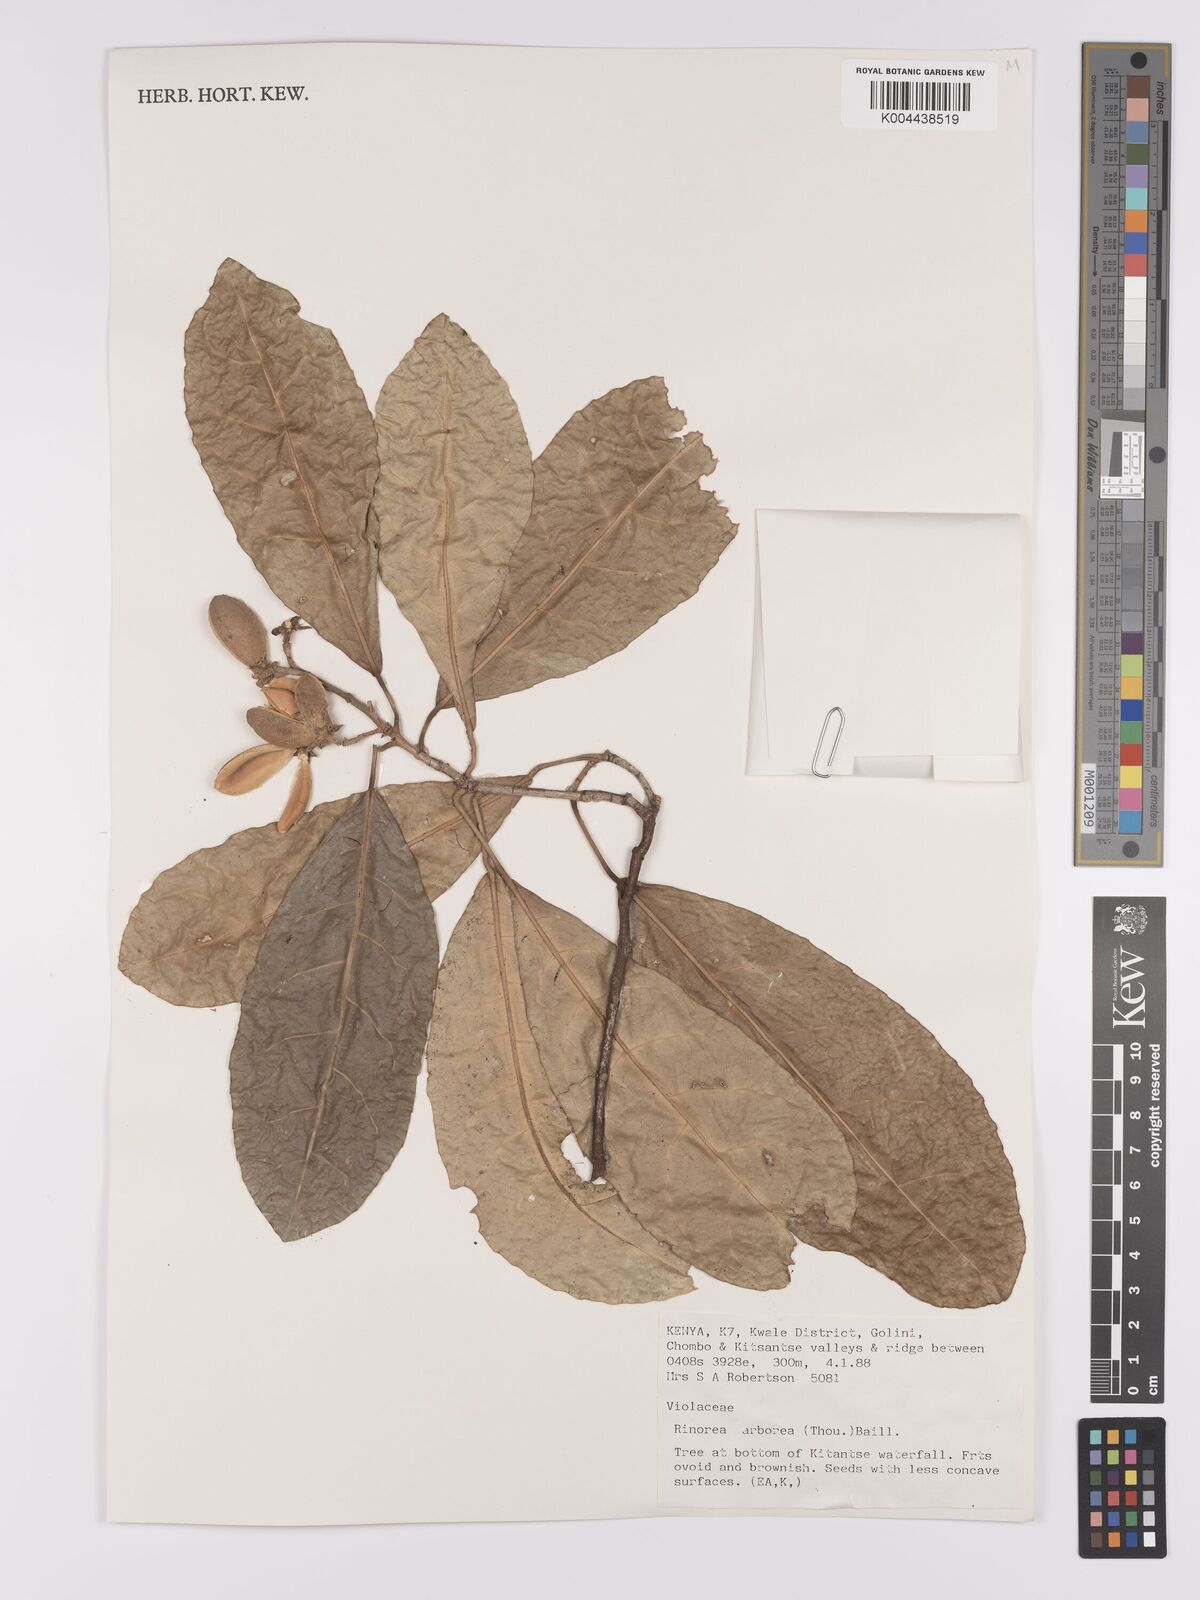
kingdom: Plantae
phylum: Tracheophyta
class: Magnoliopsida
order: Malpighiales
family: Violaceae
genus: Rinorea
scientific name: Rinorea arborea
